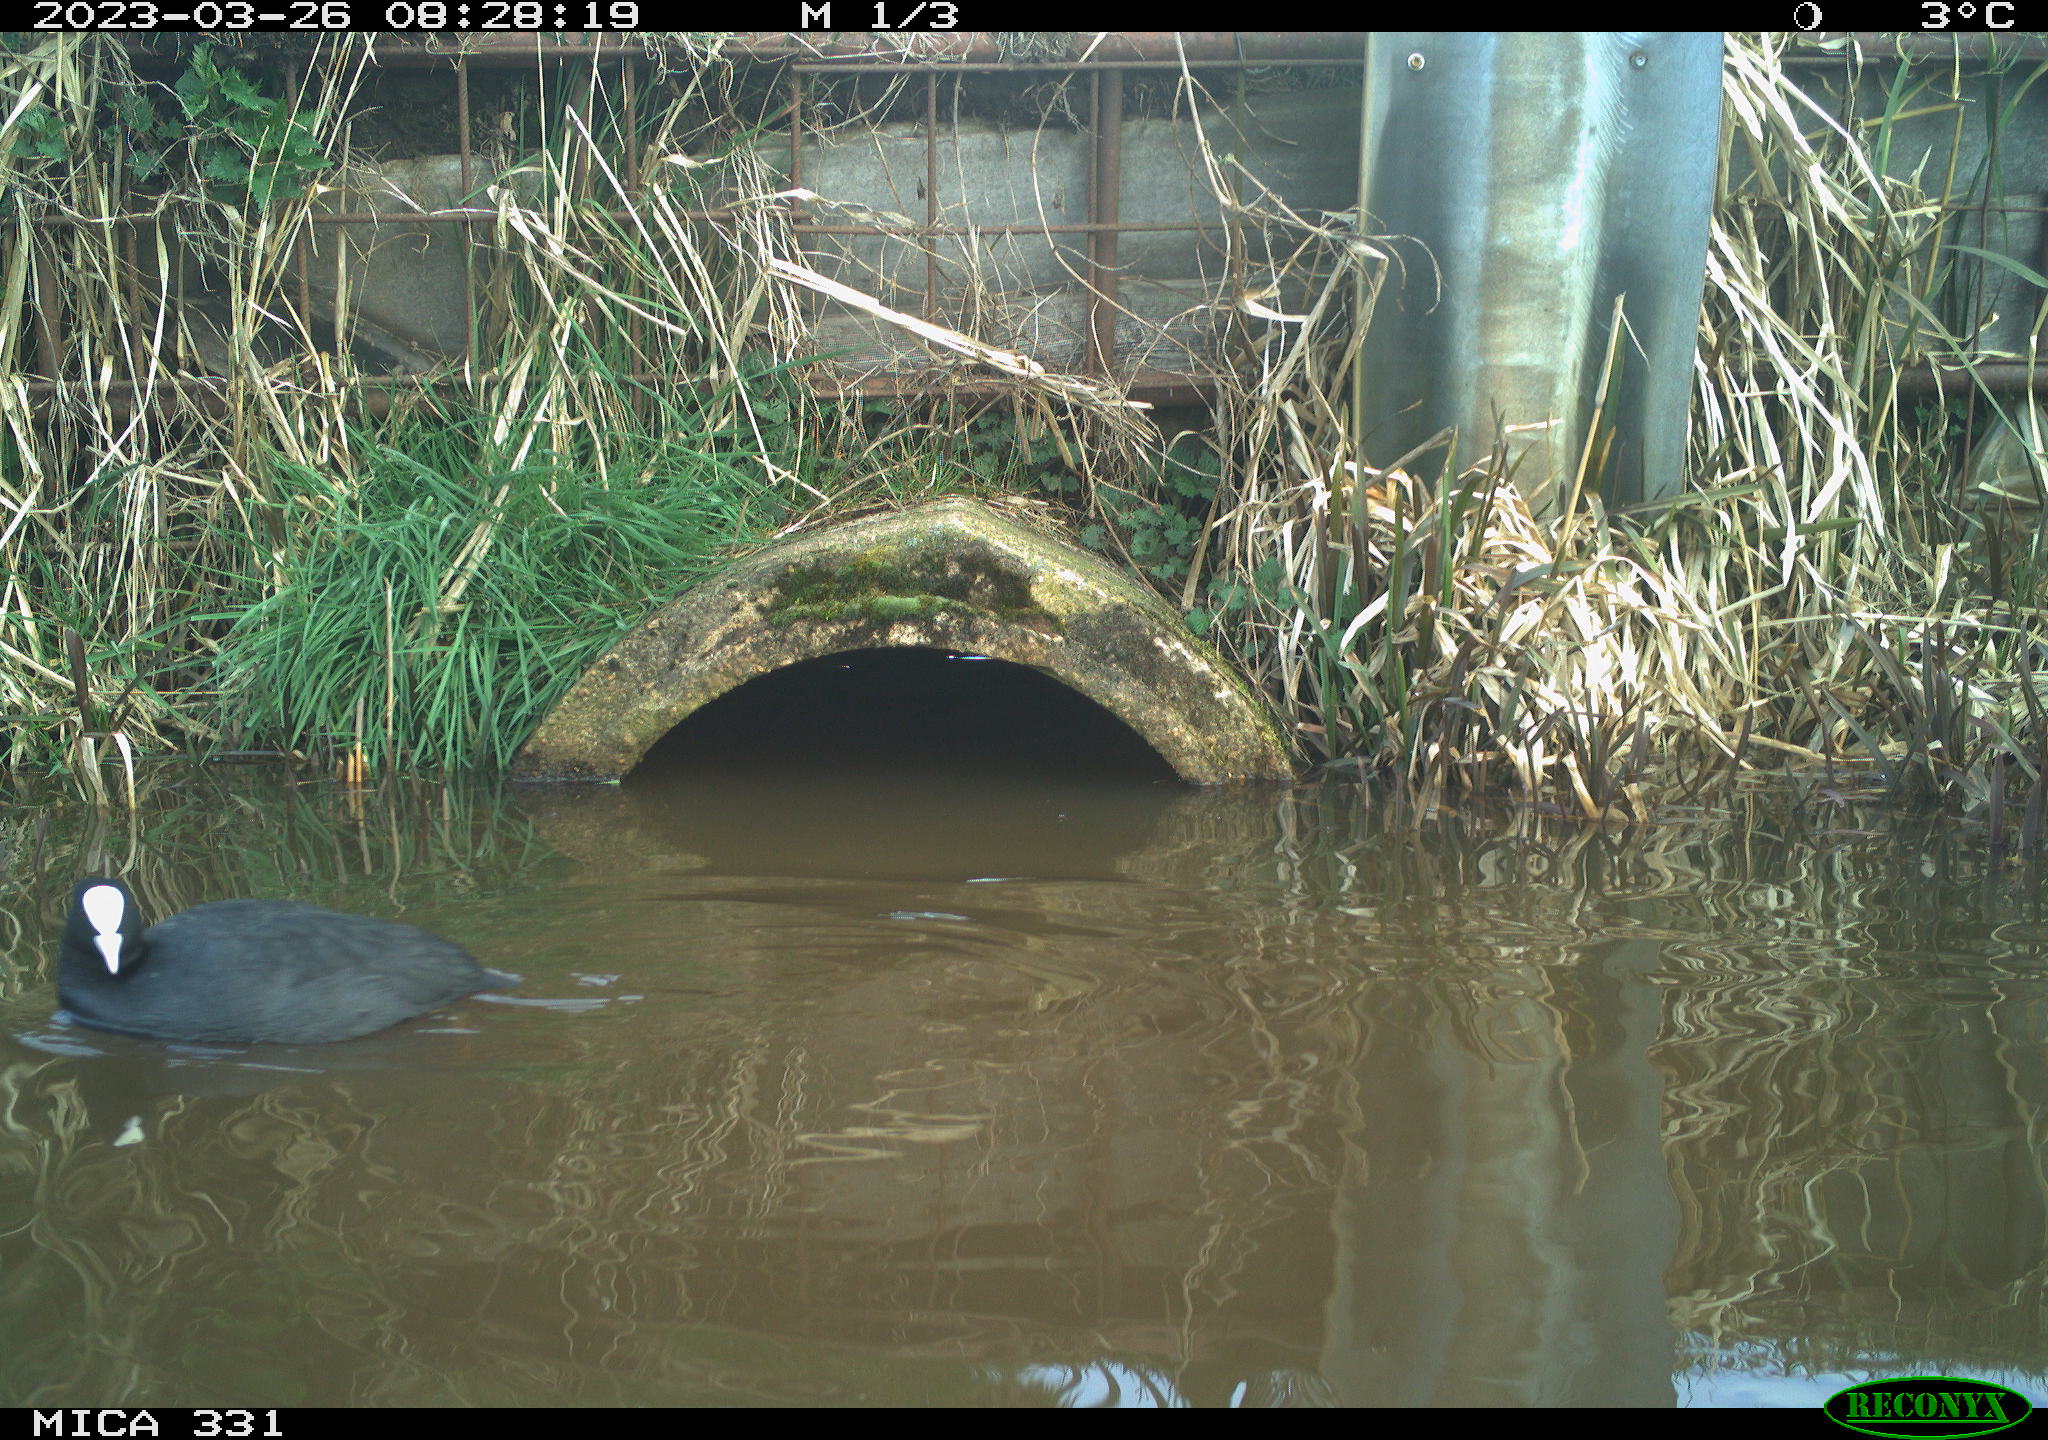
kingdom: Animalia
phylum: Chordata
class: Aves
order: Gruiformes
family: Rallidae
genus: Fulica
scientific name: Fulica atra
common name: Eurasian coot
